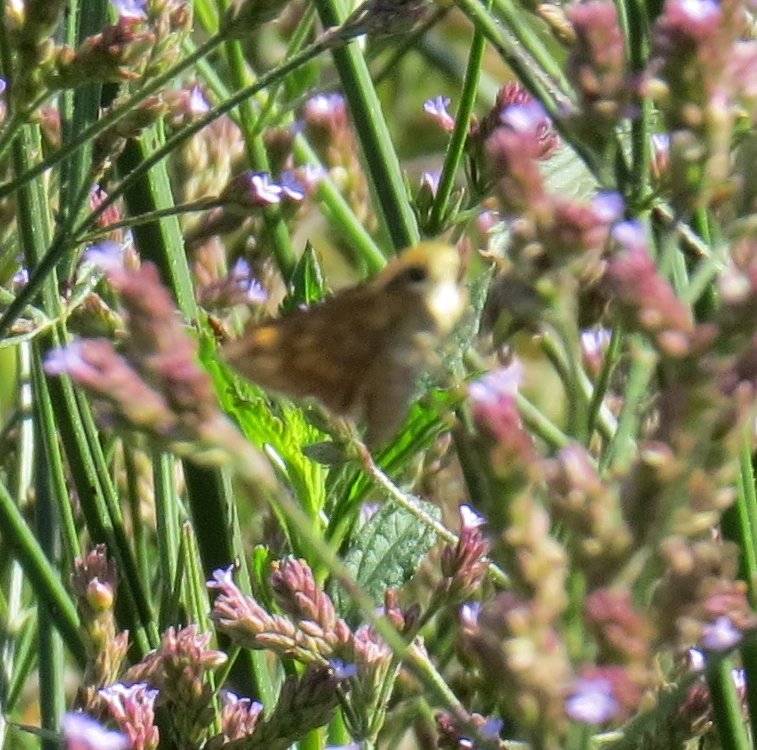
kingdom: Animalia
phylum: Arthropoda
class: Insecta
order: Lepidoptera
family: Hesperiidae
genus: Atalopedes
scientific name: Atalopedes campestris
